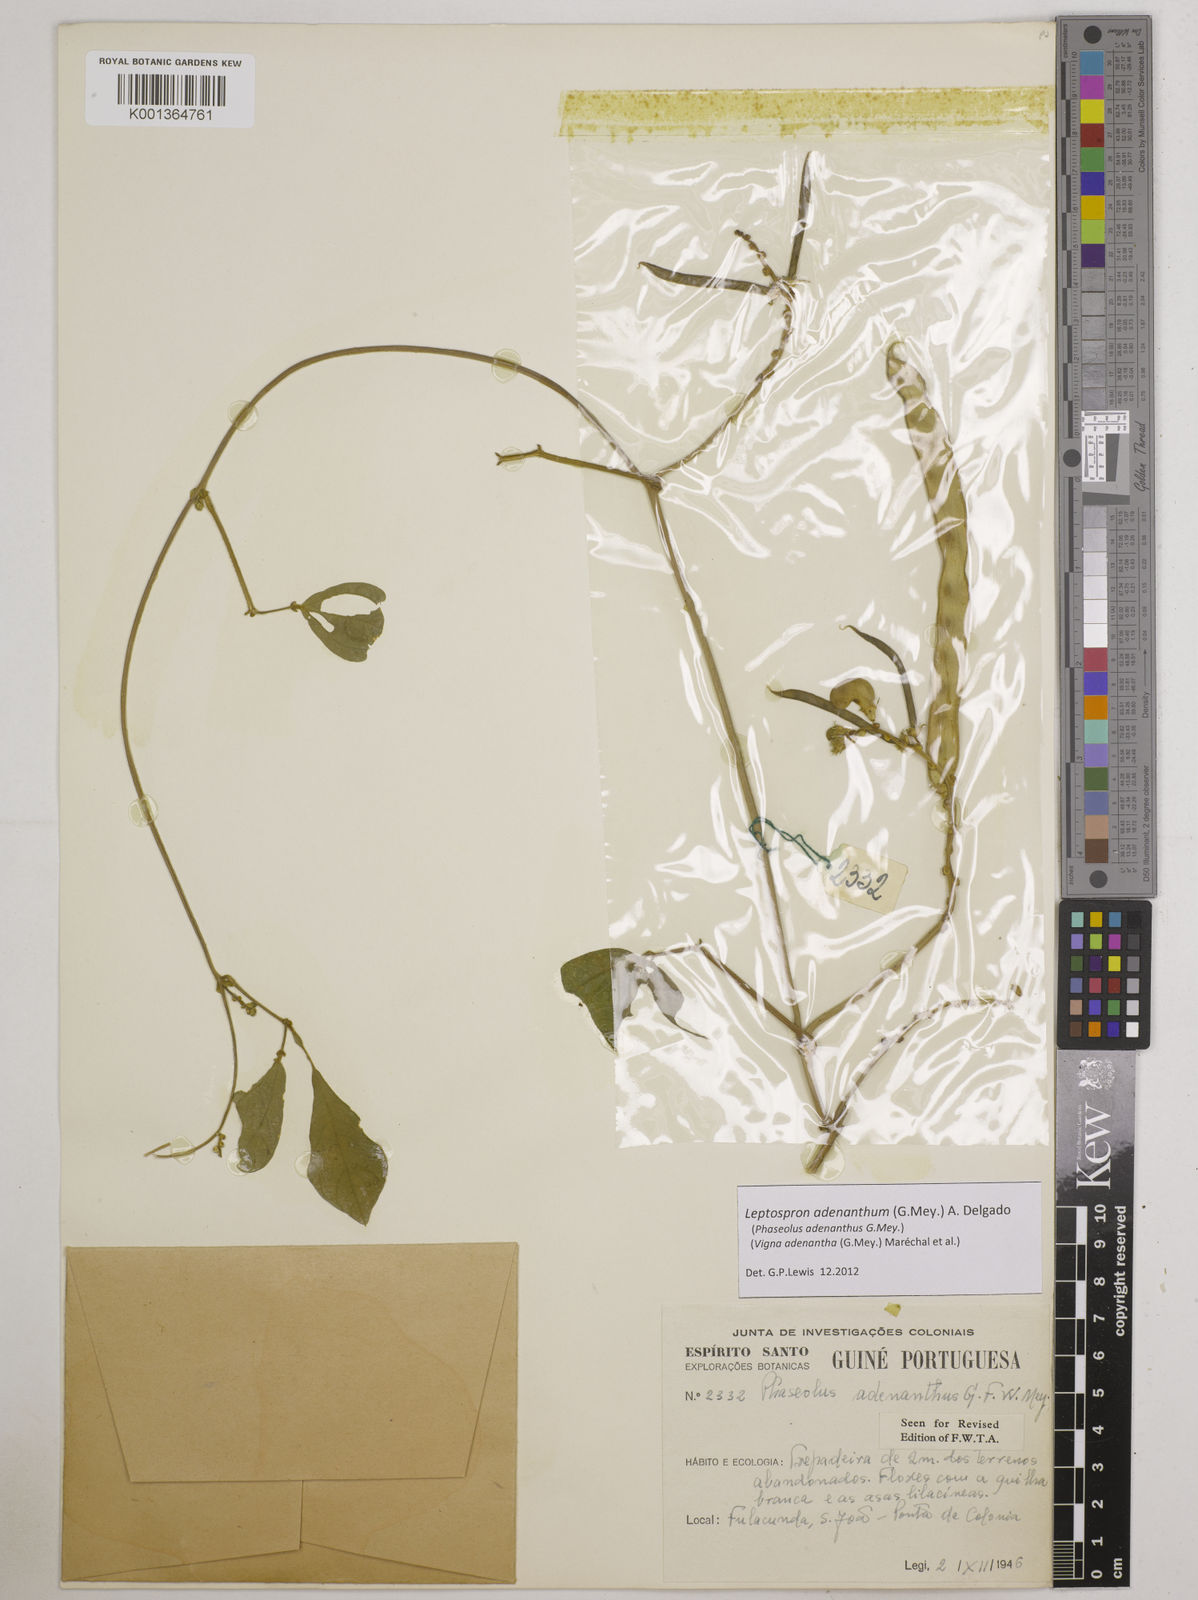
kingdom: Plantae
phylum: Tracheophyta
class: Magnoliopsida
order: Fabales
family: Fabaceae
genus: Leptospron
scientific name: Leptospron adenanthum
